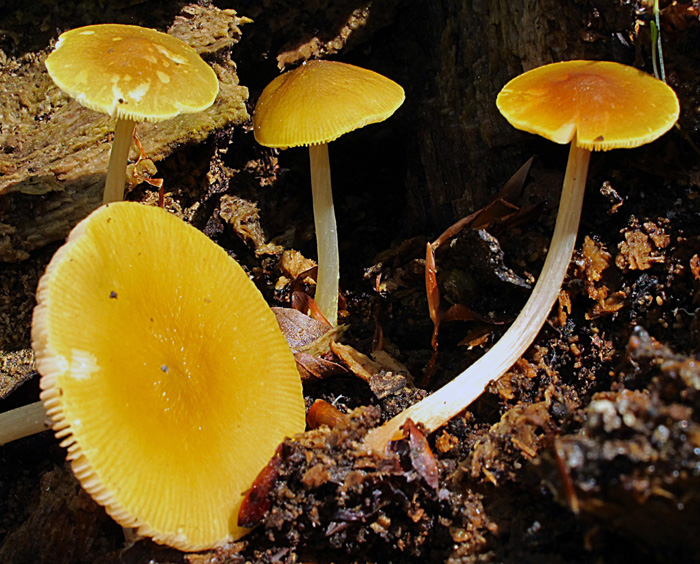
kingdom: Fungi
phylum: Basidiomycota
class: Agaricomycetes
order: Agaricales
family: Pluteaceae
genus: Pluteus
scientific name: Pluteus chrysophlebius
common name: grøngul skærmhat
